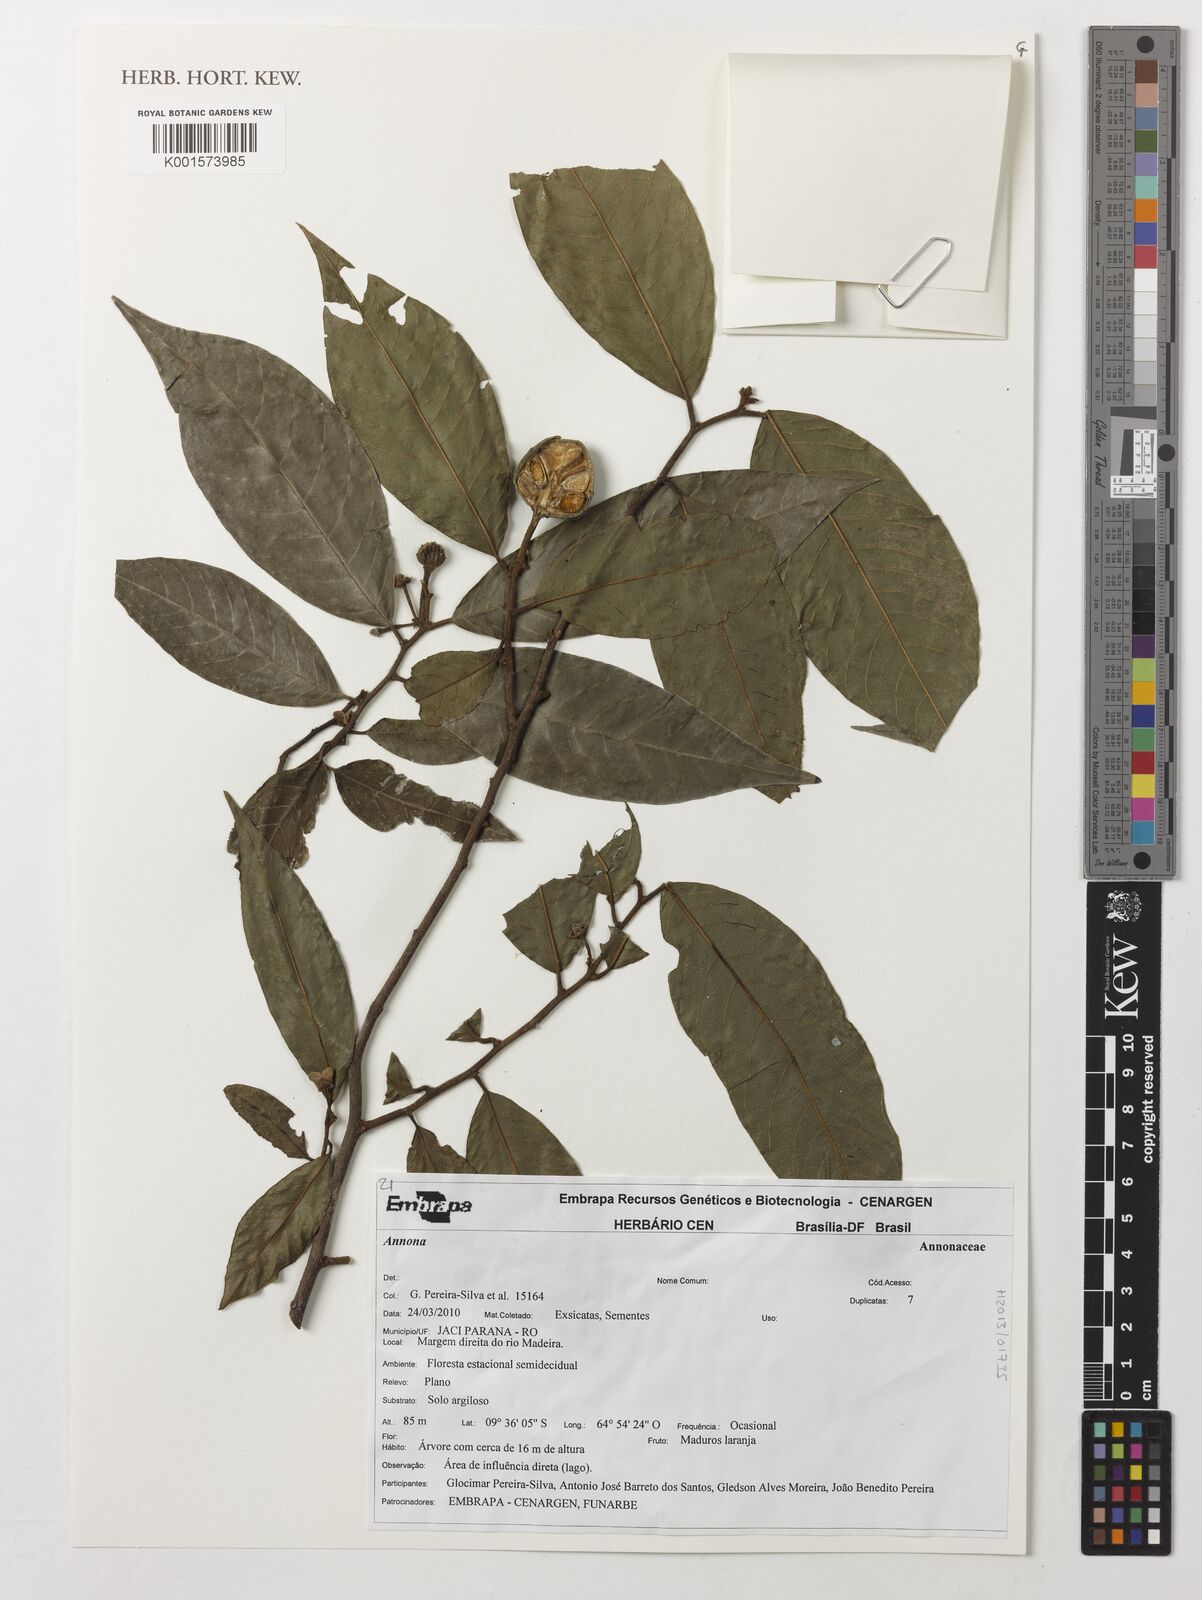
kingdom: Plantae
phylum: Tracheophyta
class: Magnoliopsida
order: Magnoliales
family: Annonaceae
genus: Annona
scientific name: Annona
